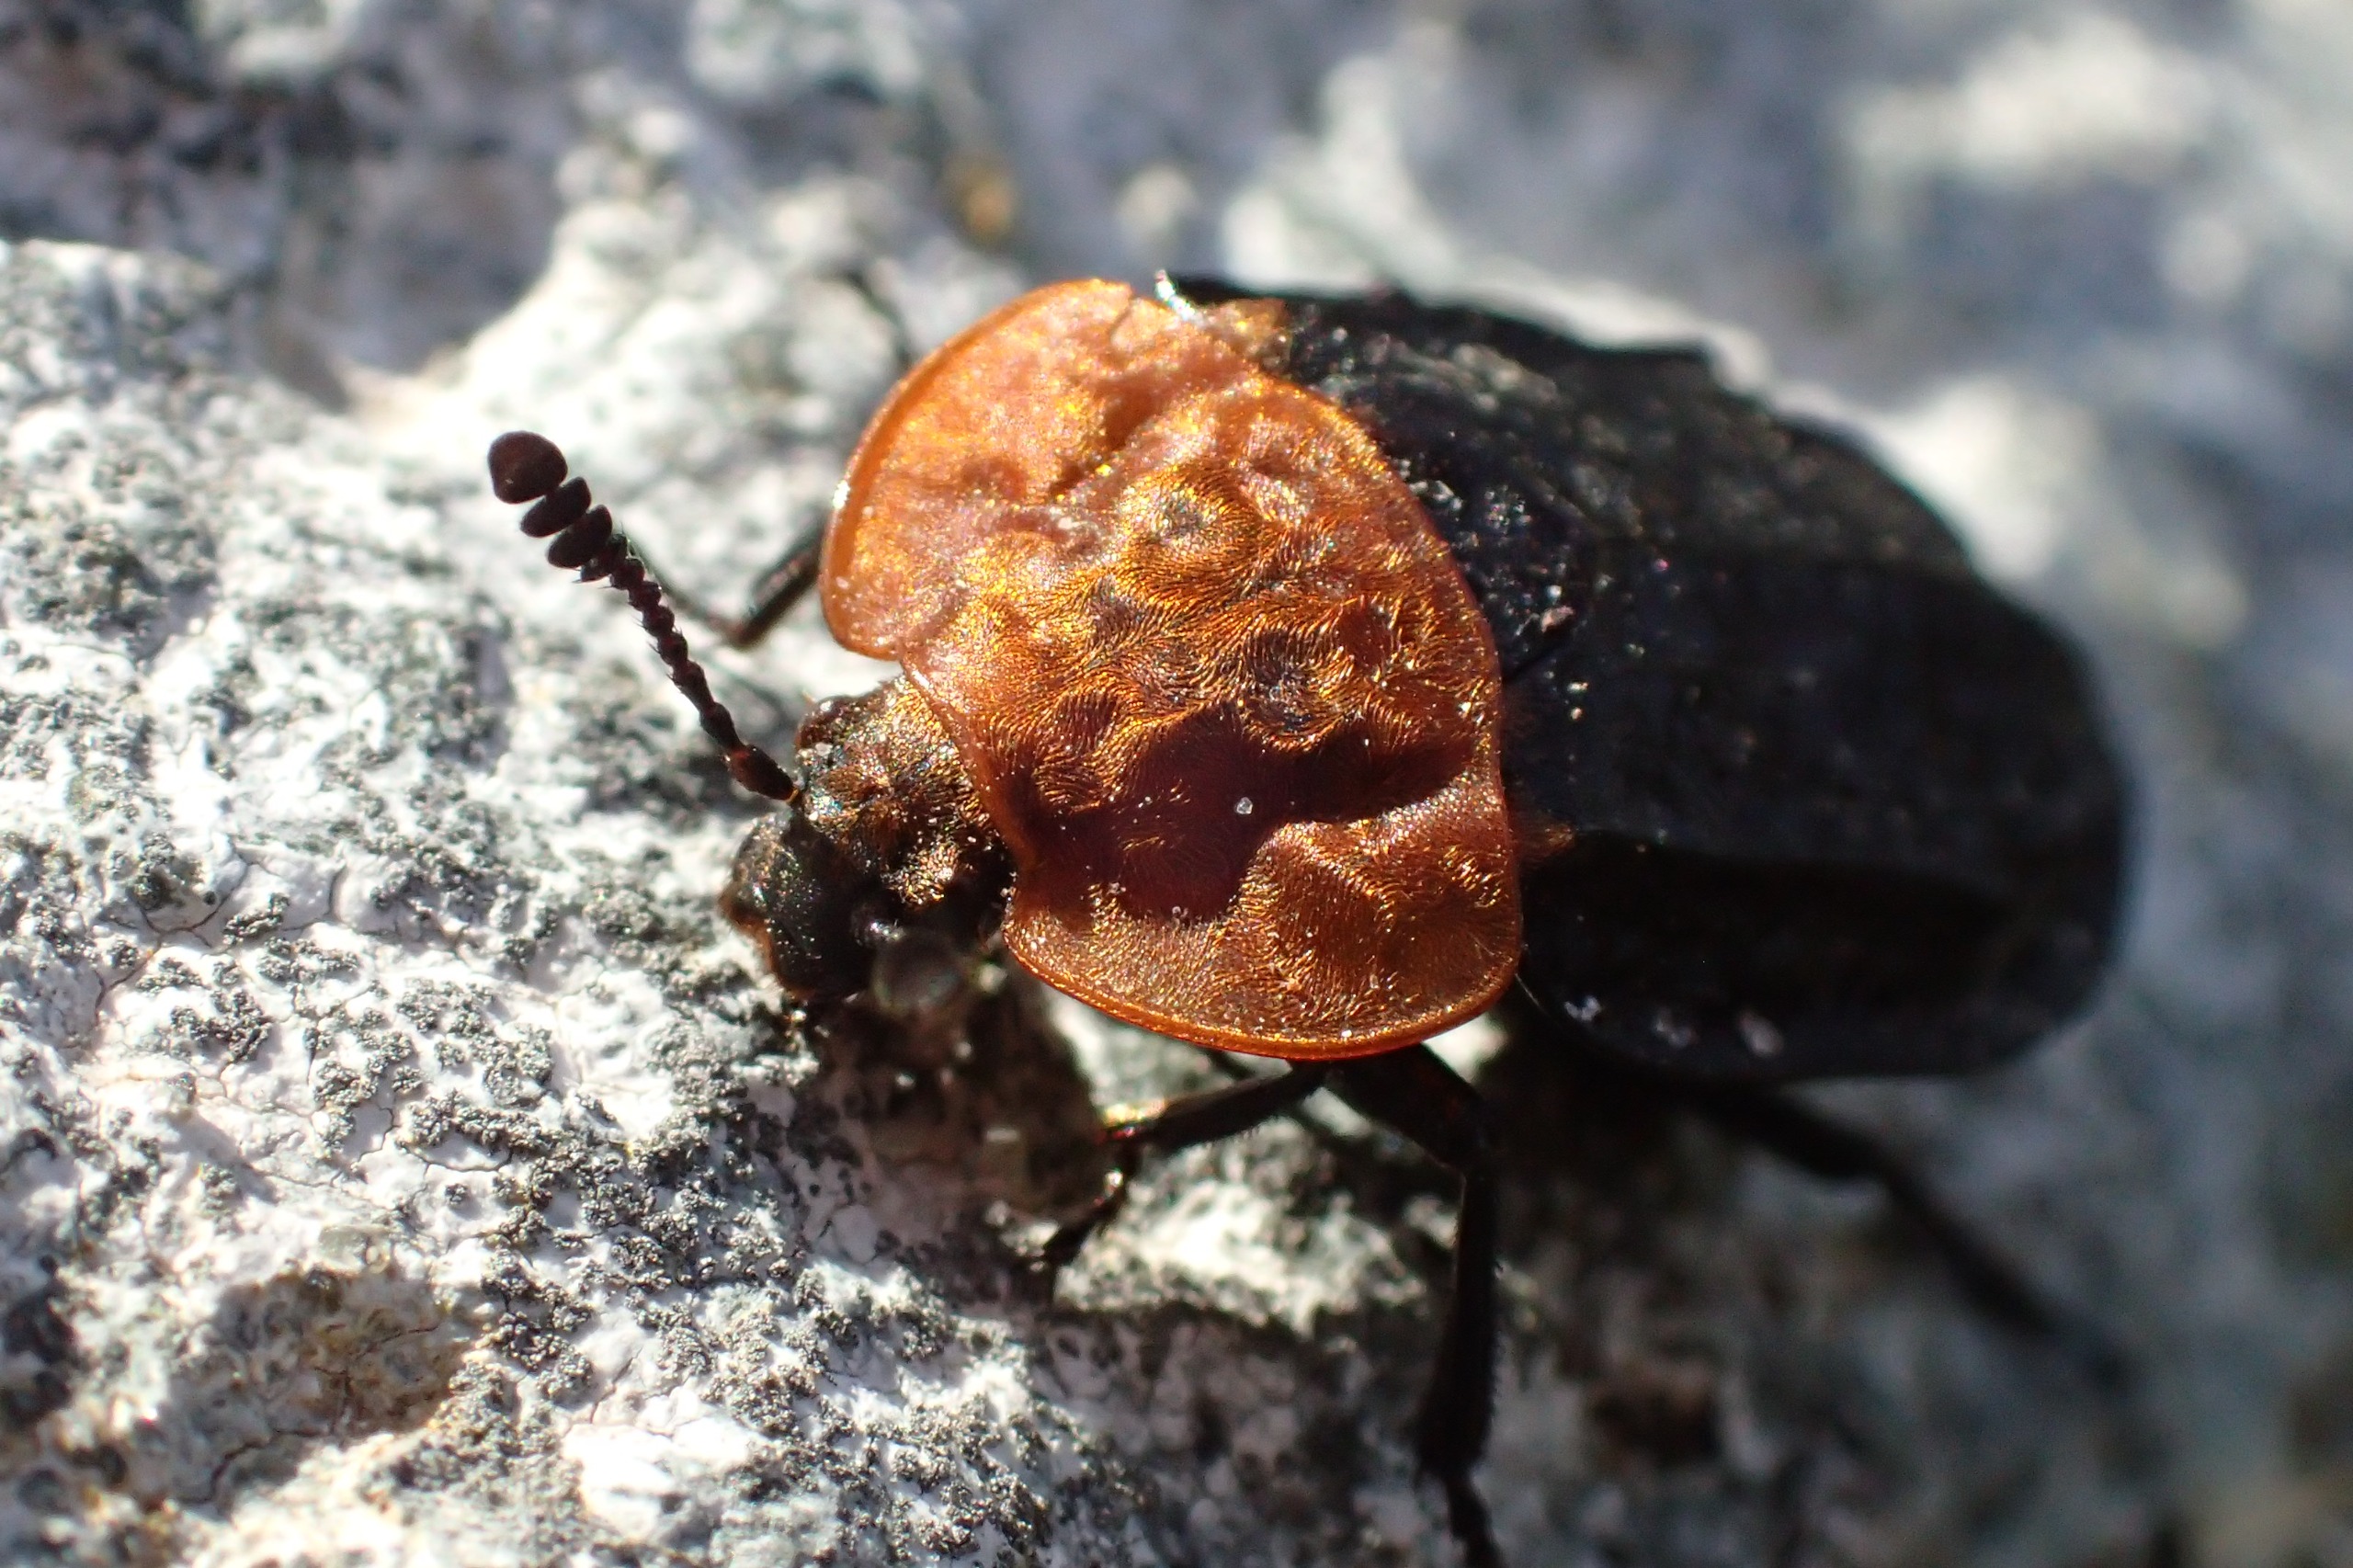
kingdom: Animalia
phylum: Arthropoda
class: Insecta
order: Coleoptera
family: Staphylinidae
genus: Oiceoptoma
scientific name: Oiceoptoma thoracicum
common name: Rødbrystet ådselbille
